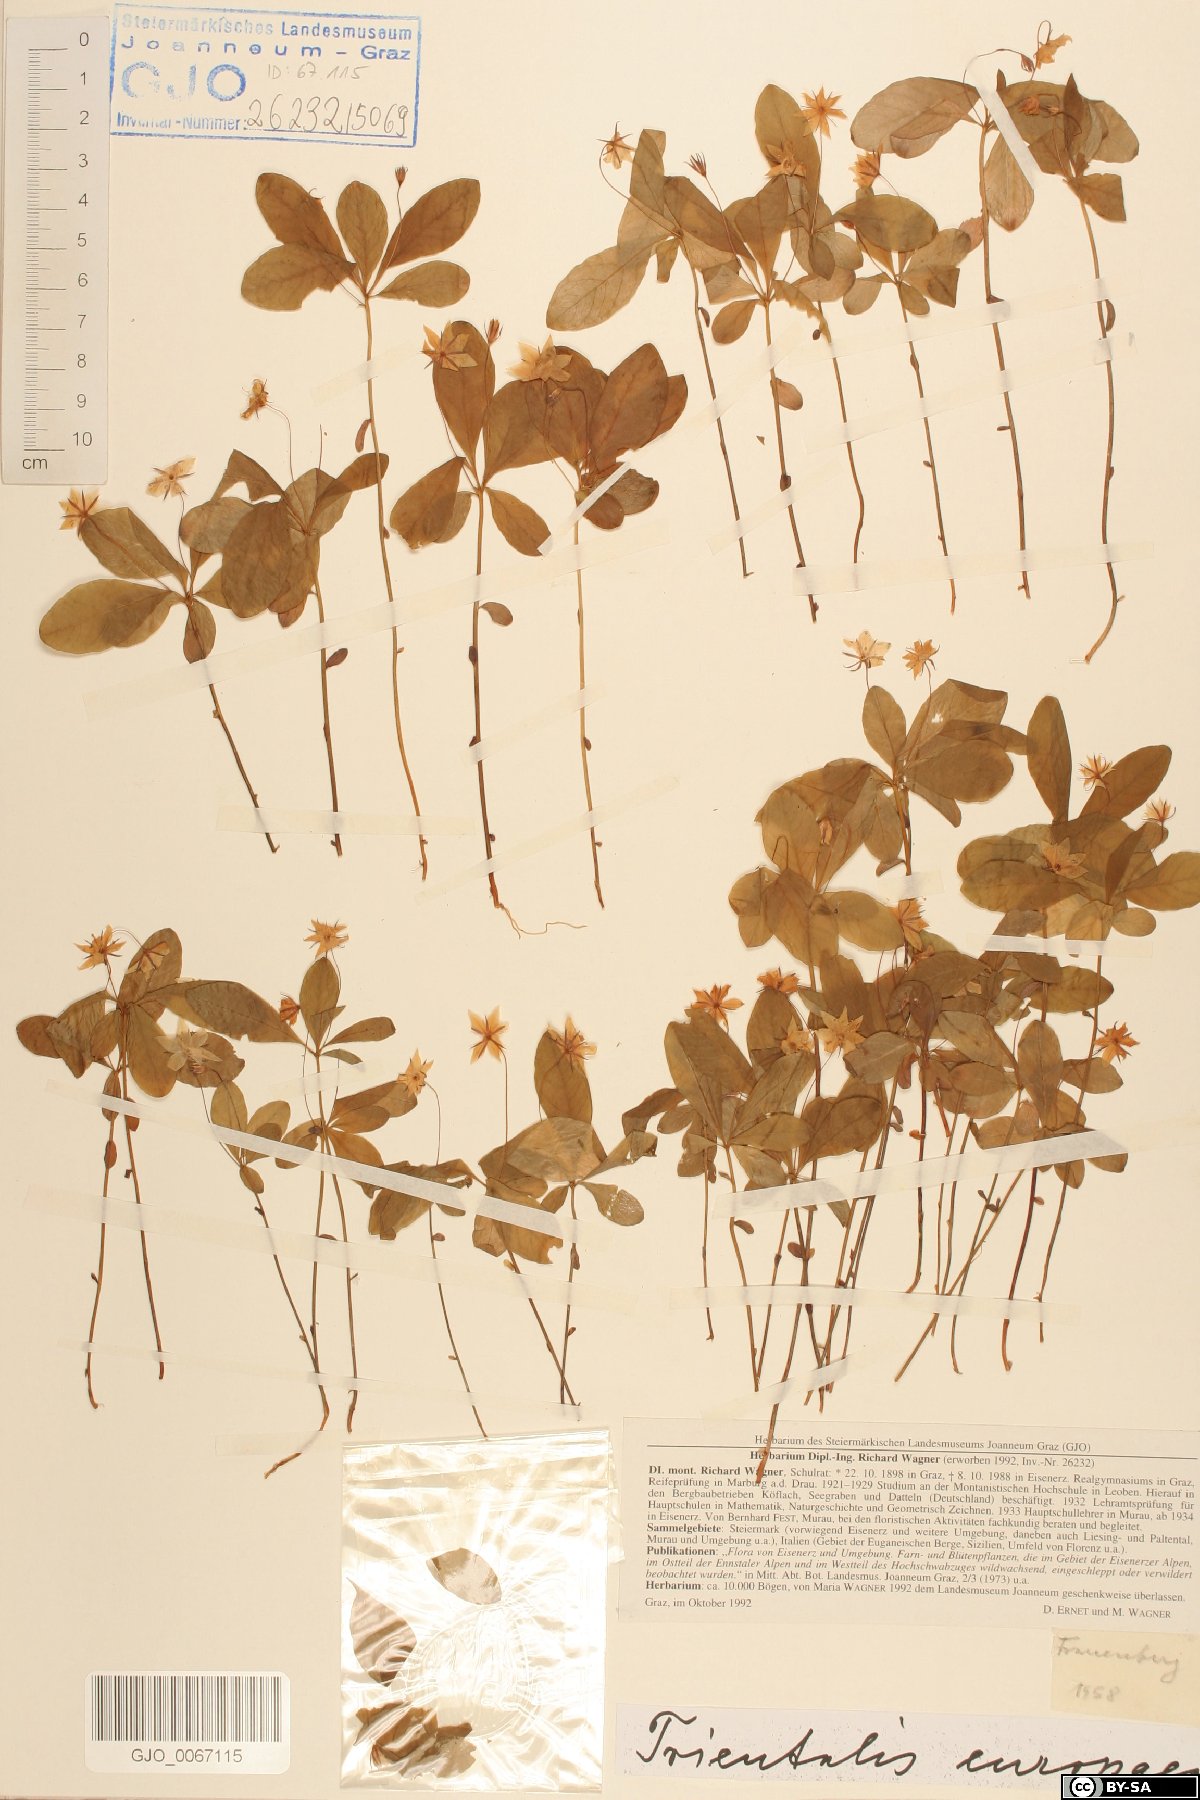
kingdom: Plantae
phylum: Tracheophyta
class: Magnoliopsida
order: Ericales
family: Primulaceae
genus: Lysimachia
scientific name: Lysimachia europaea
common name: Arctic starflower
